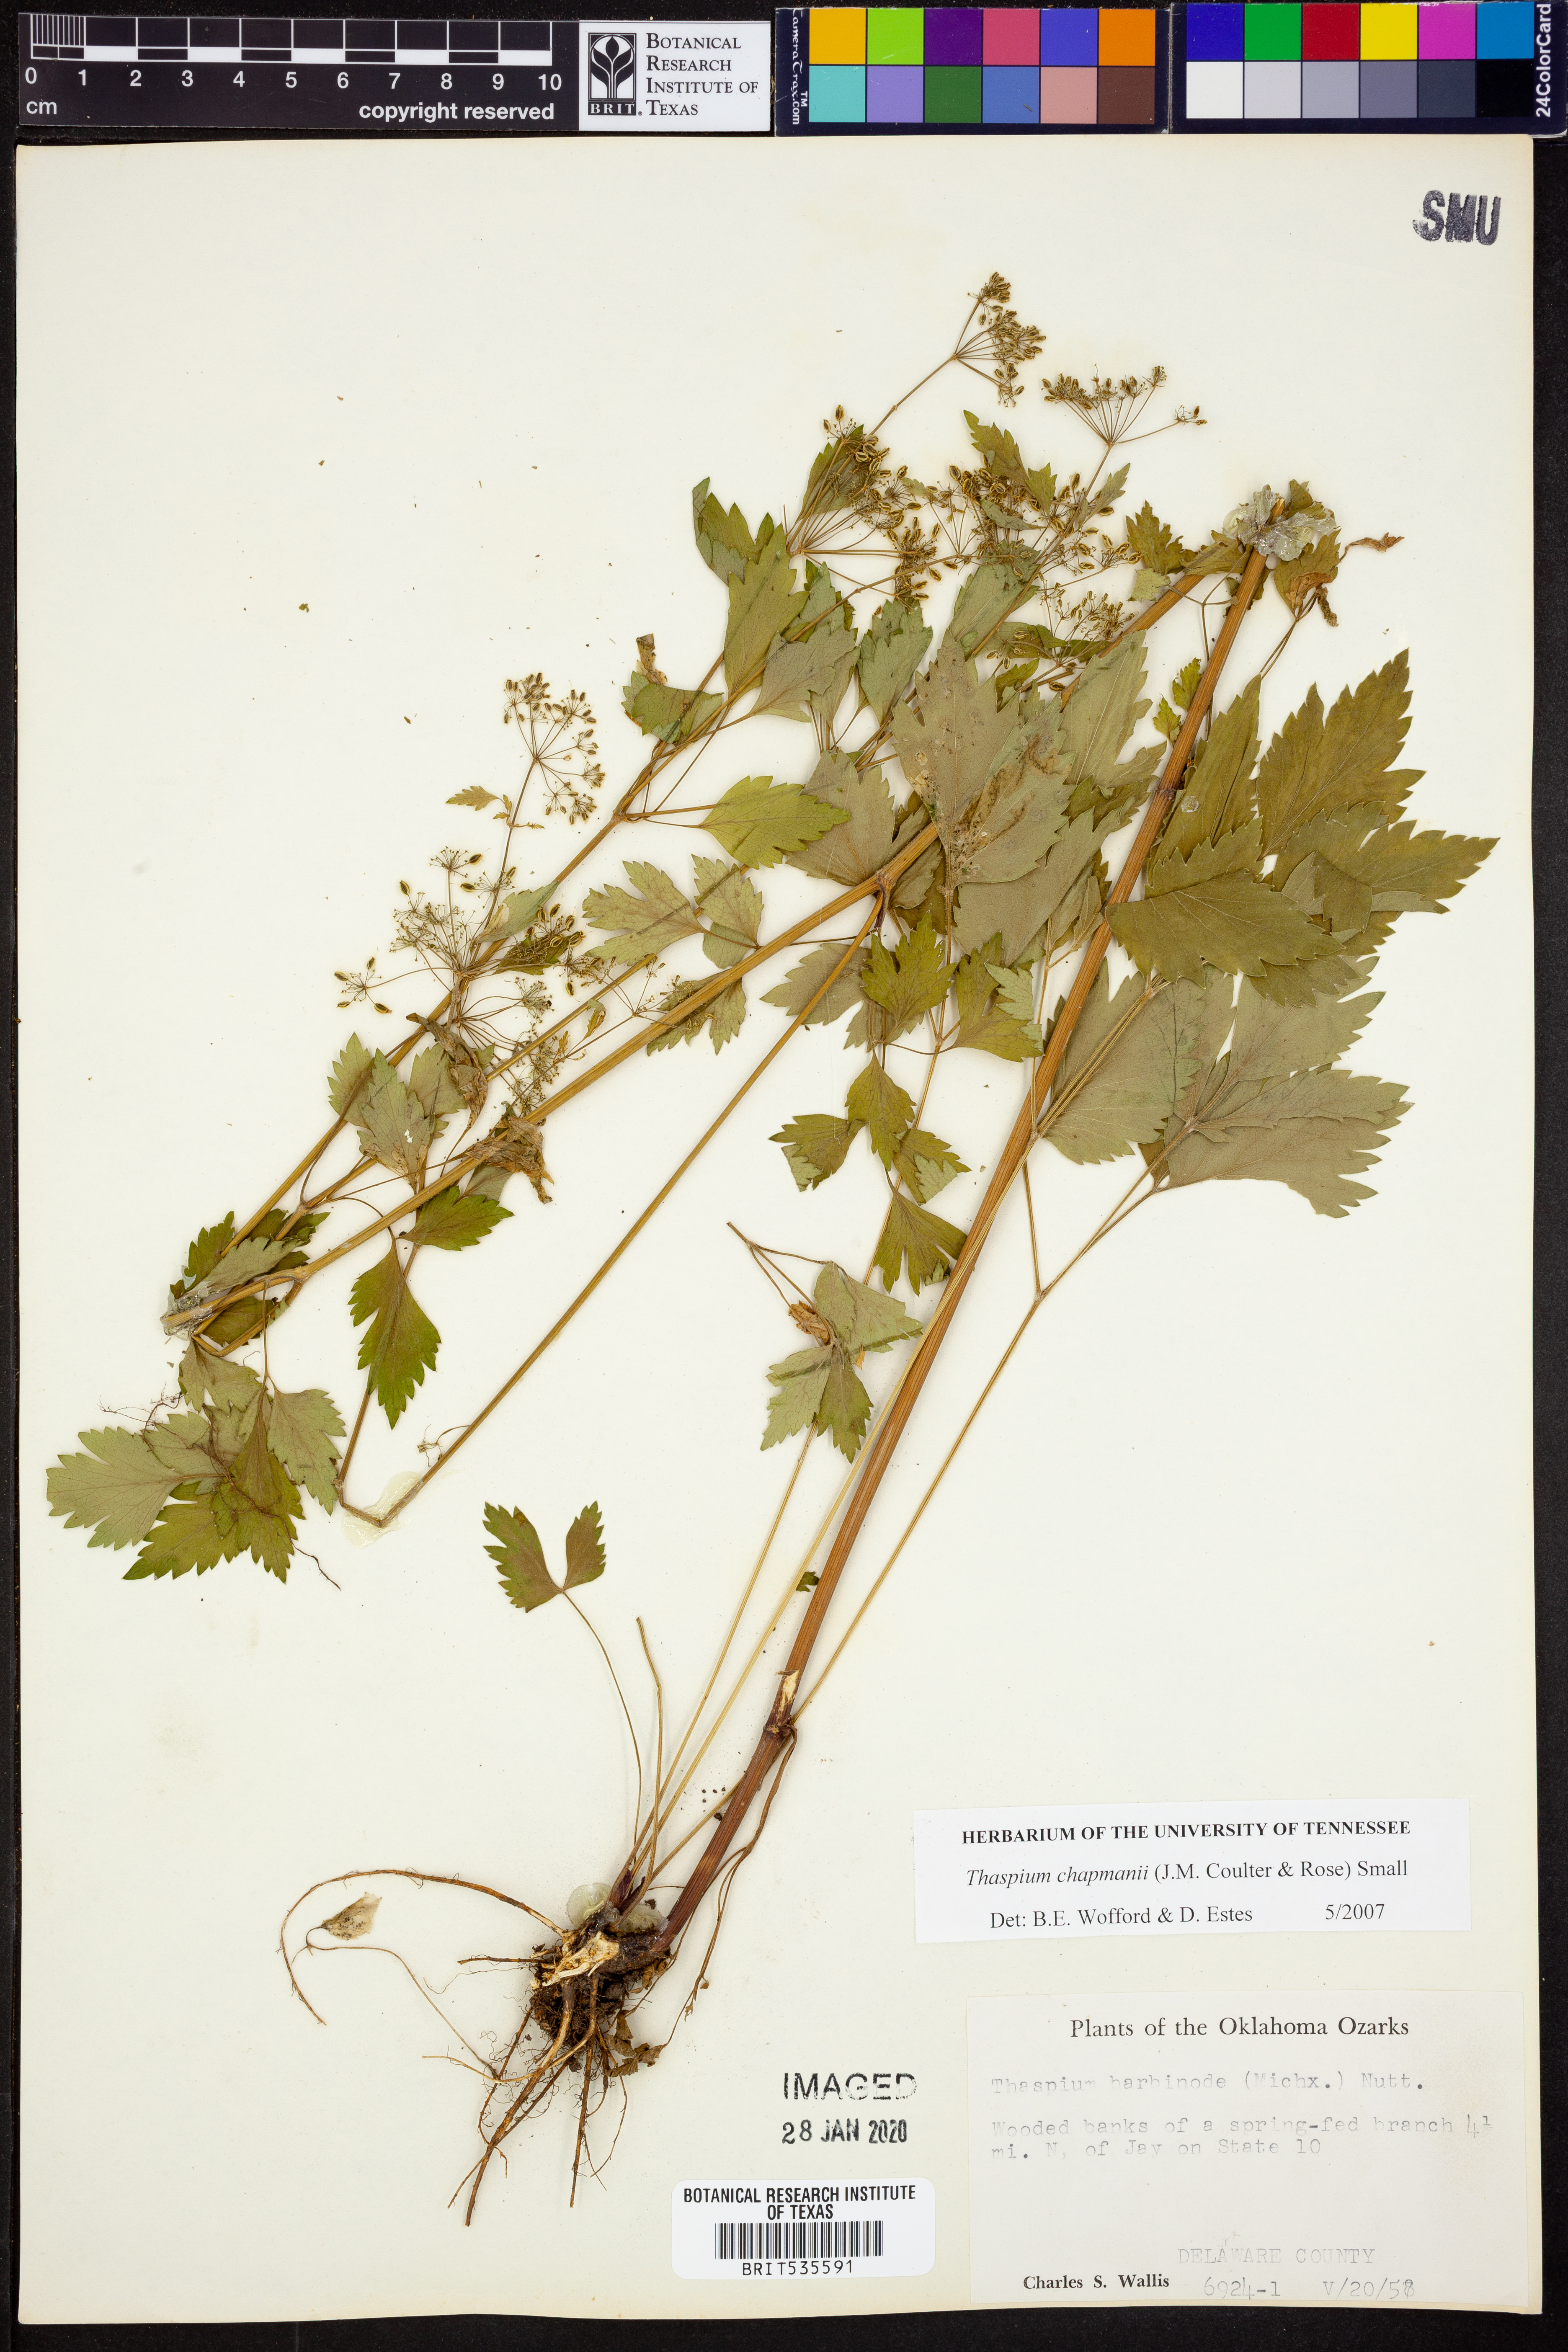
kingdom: Plantae
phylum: Tracheophyta
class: Magnoliopsida
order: Apiales
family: Apiaceae
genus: Thaspium
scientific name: Thaspium barbinode
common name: Bearded meadow-parsnip
